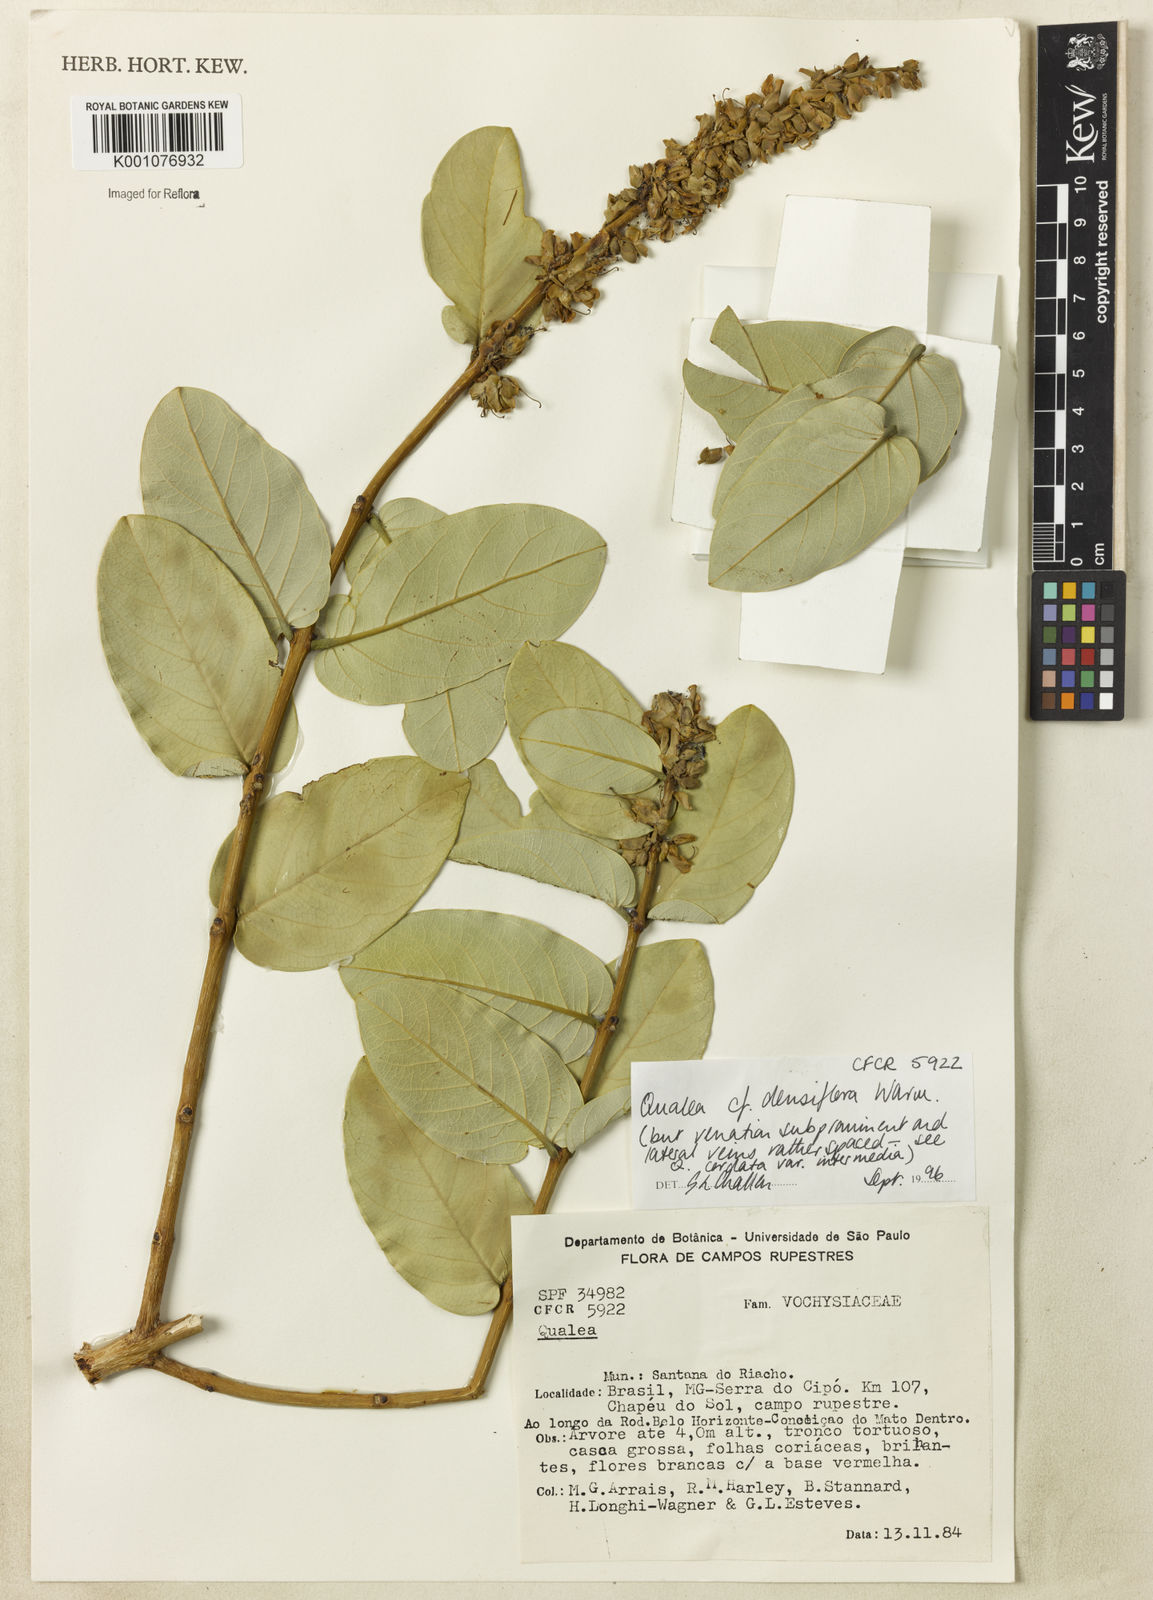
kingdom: Plantae
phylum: Tracheophyta
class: Magnoliopsida
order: Myrtales
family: Vochysiaceae
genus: Qualea
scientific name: Qualea densiflora
